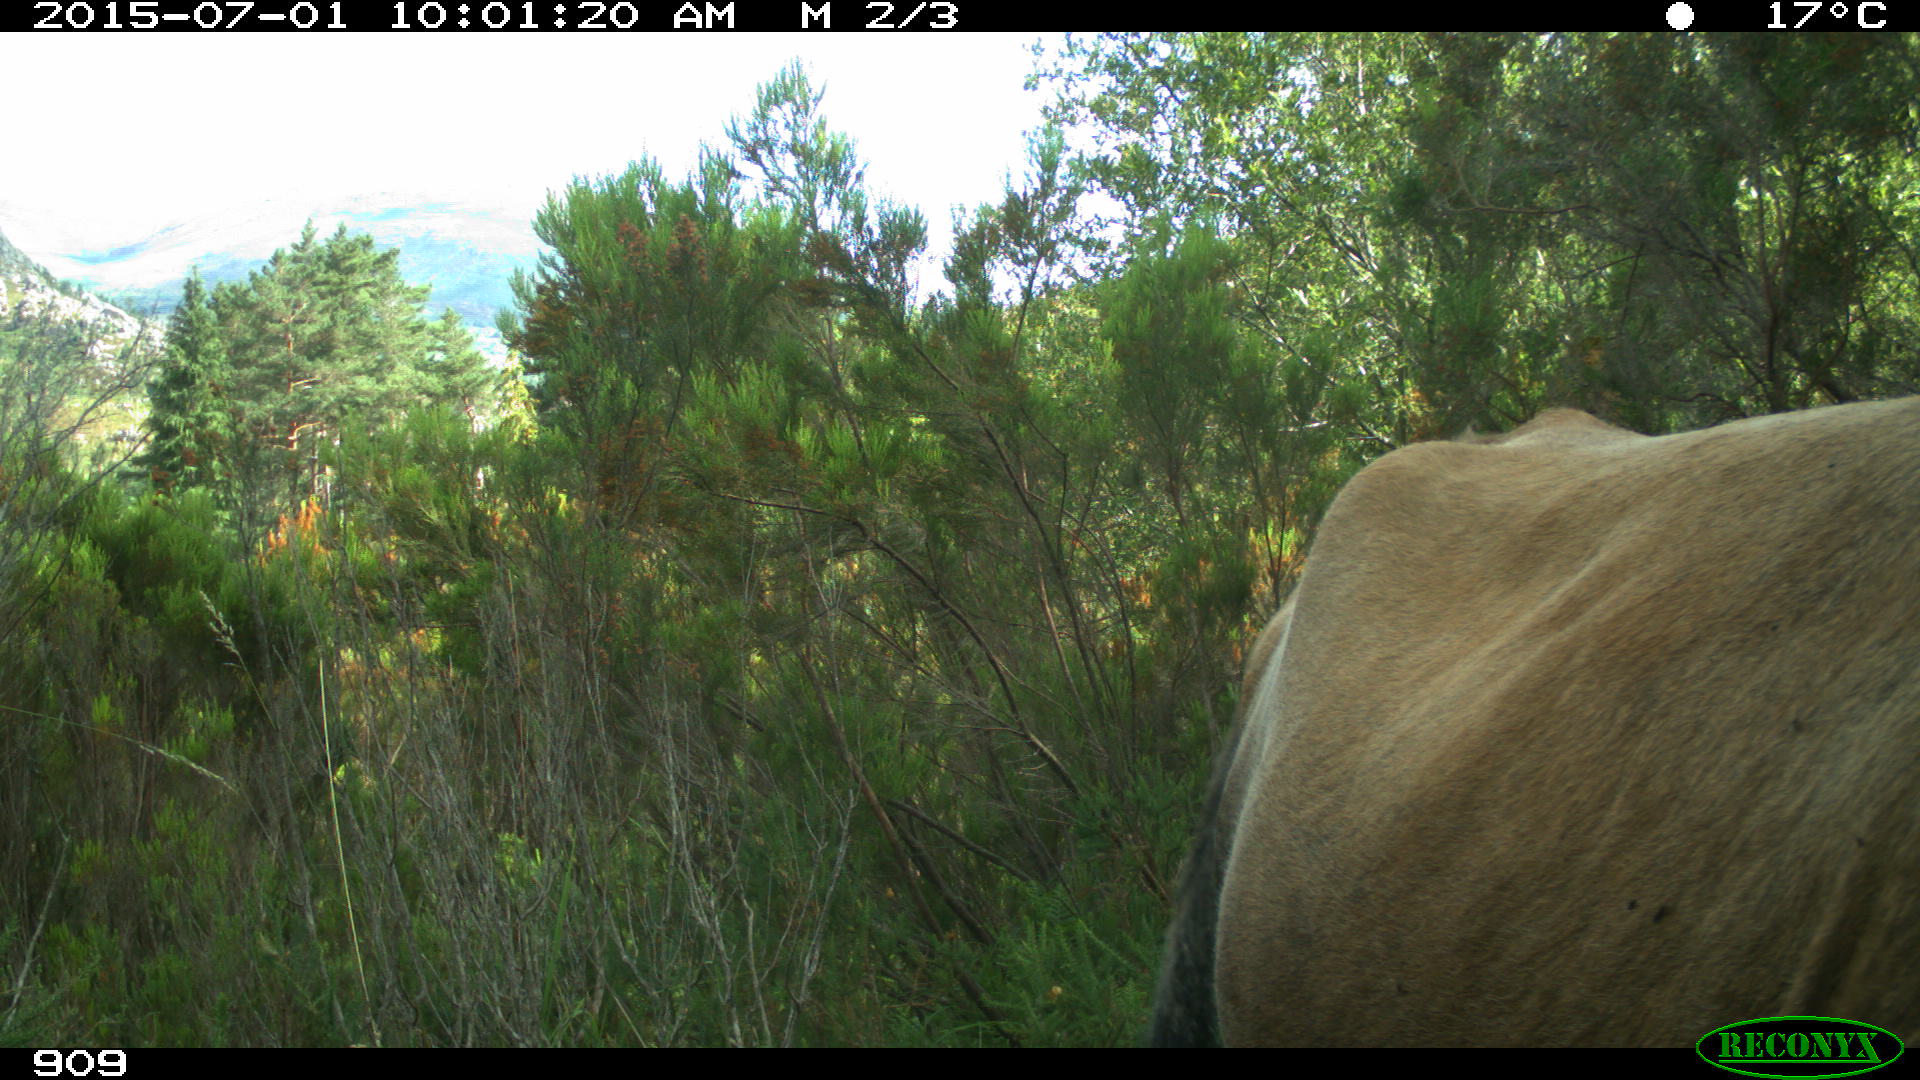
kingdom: Animalia
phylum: Chordata
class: Mammalia
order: Artiodactyla
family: Bovidae
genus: Bos
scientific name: Bos taurus
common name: Domesticated cattle
